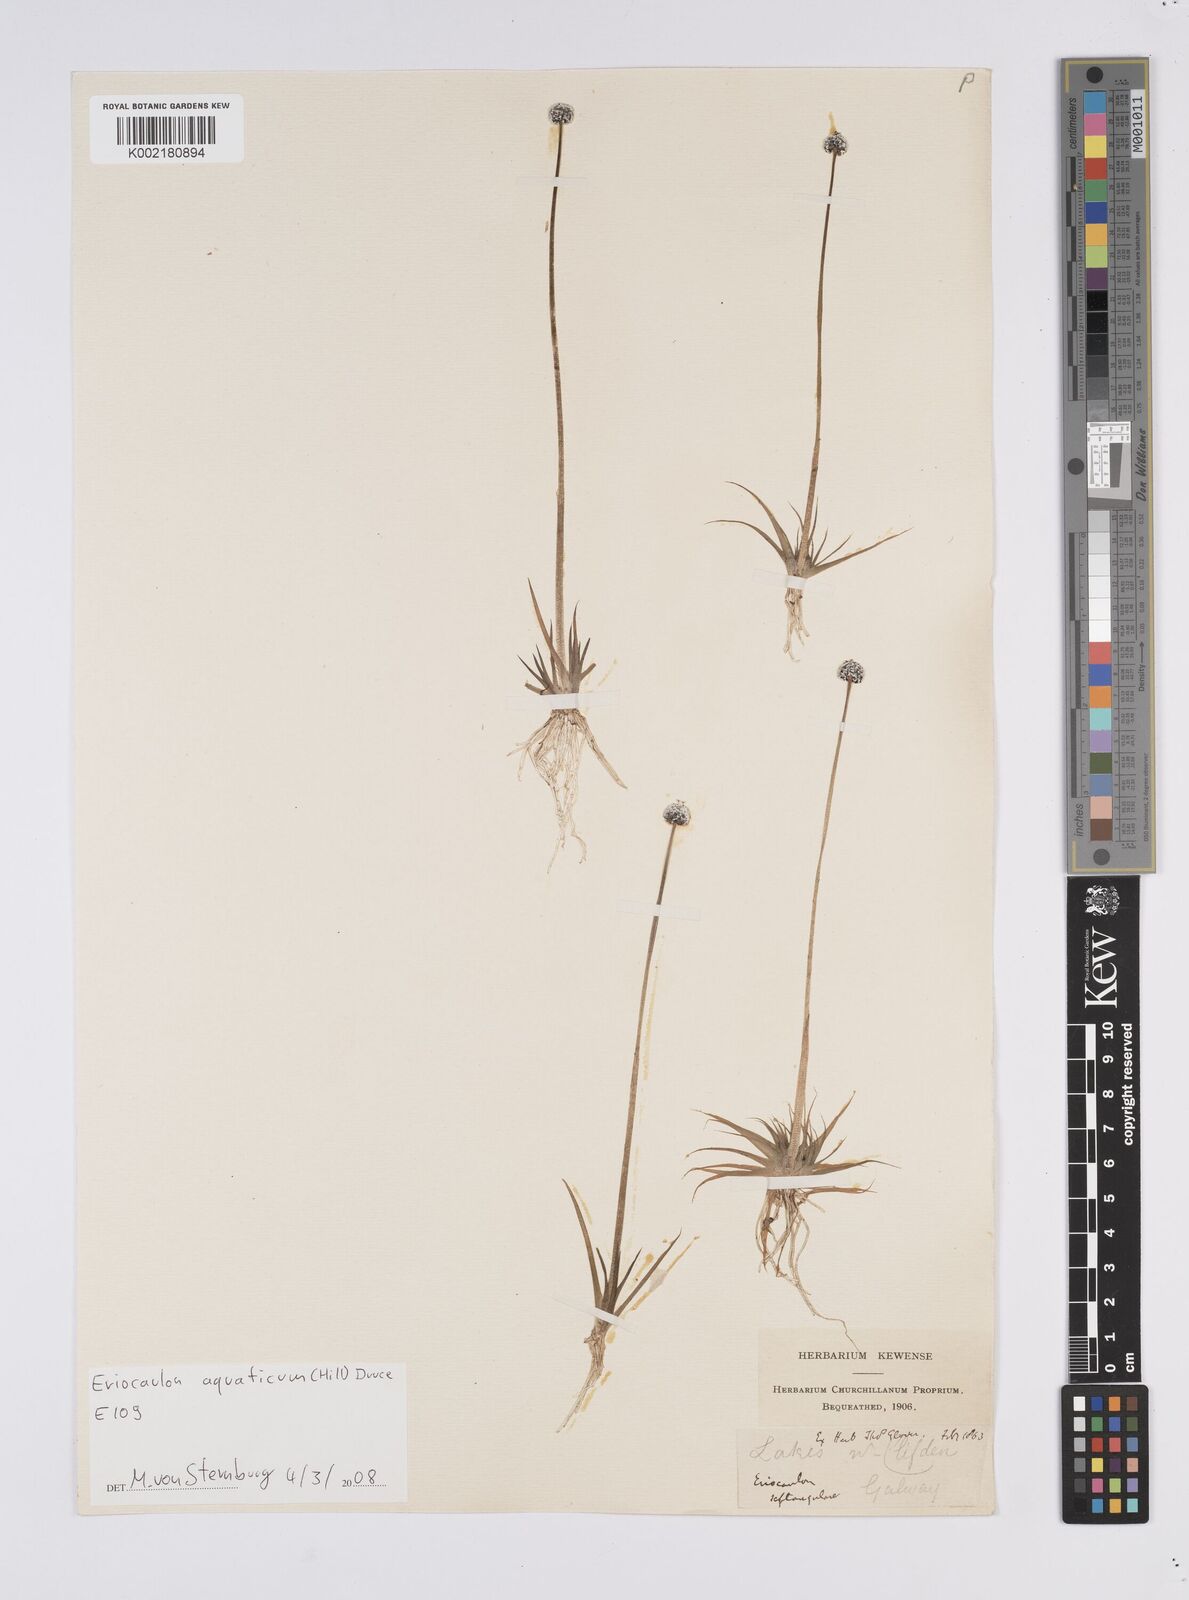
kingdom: Plantae
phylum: Tracheophyta
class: Liliopsida
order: Poales
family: Eriocaulaceae
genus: Eriocaulon
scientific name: Eriocaulon aquaticum
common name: Pipewort
